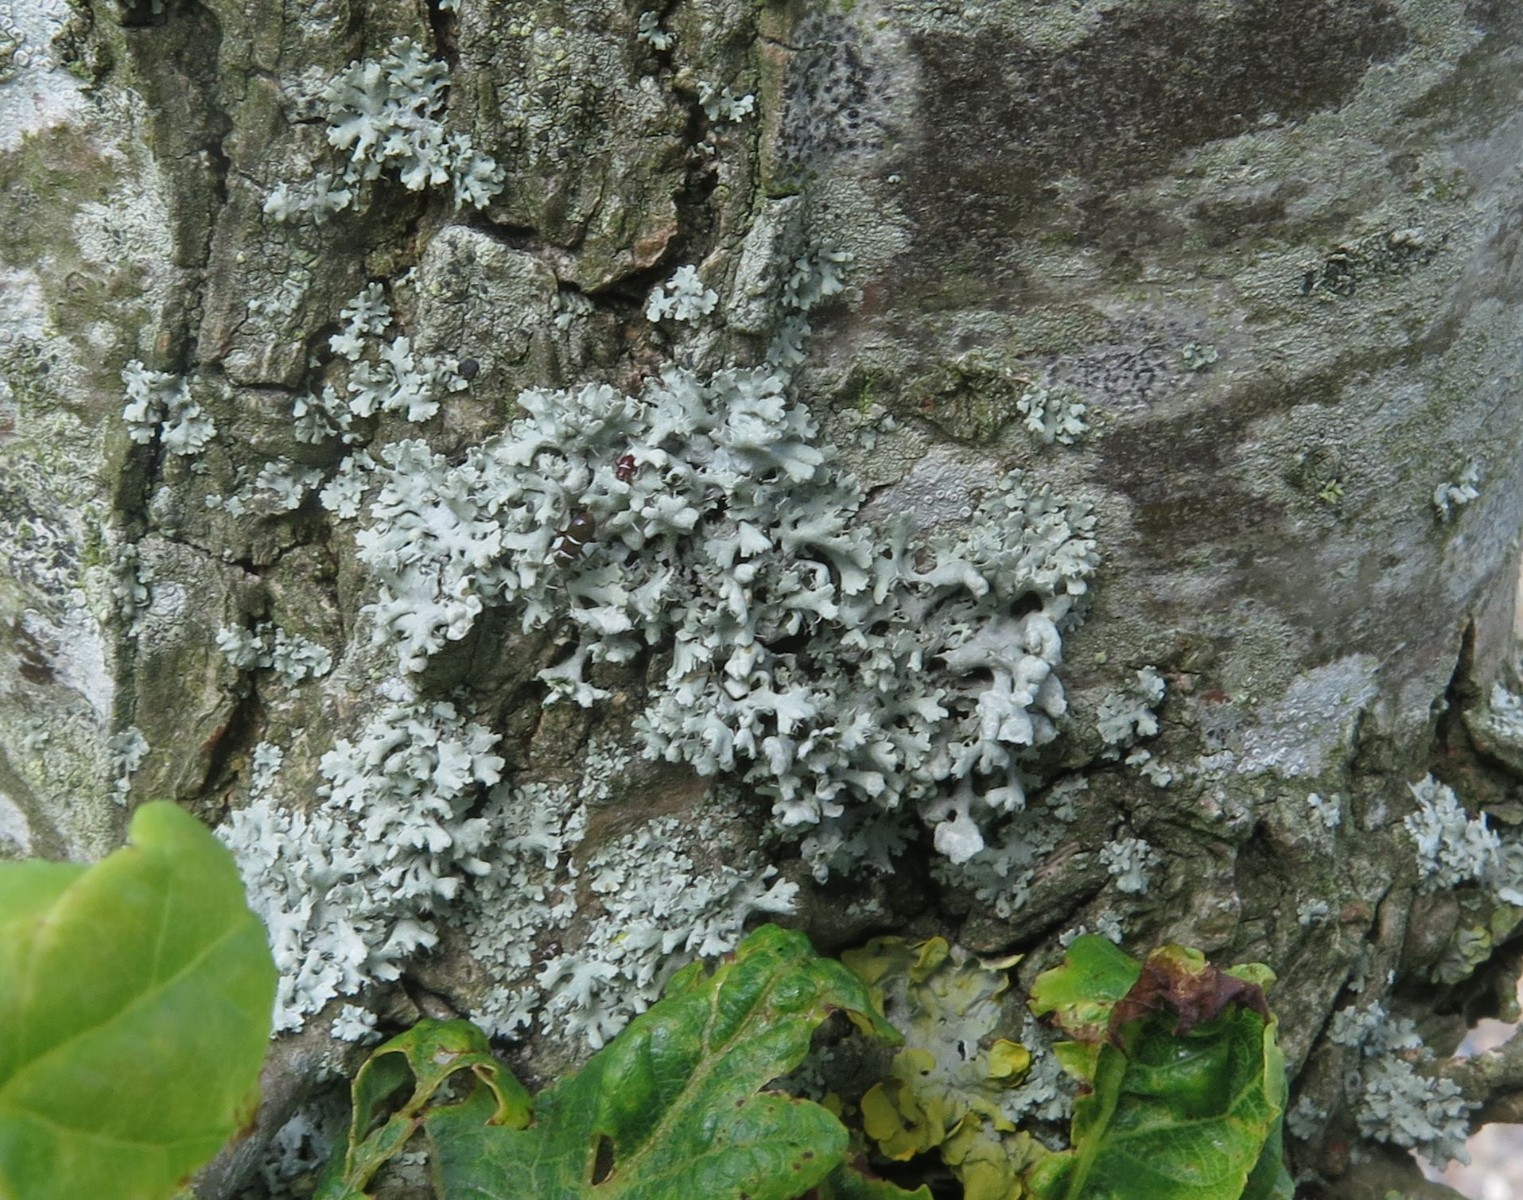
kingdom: Fungi
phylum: Ascomycota
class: Lecanoromycetes
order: Caliciales
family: Physciaceae
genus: Physcia
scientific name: Physcia adscendens
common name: hætte-rosetlav
